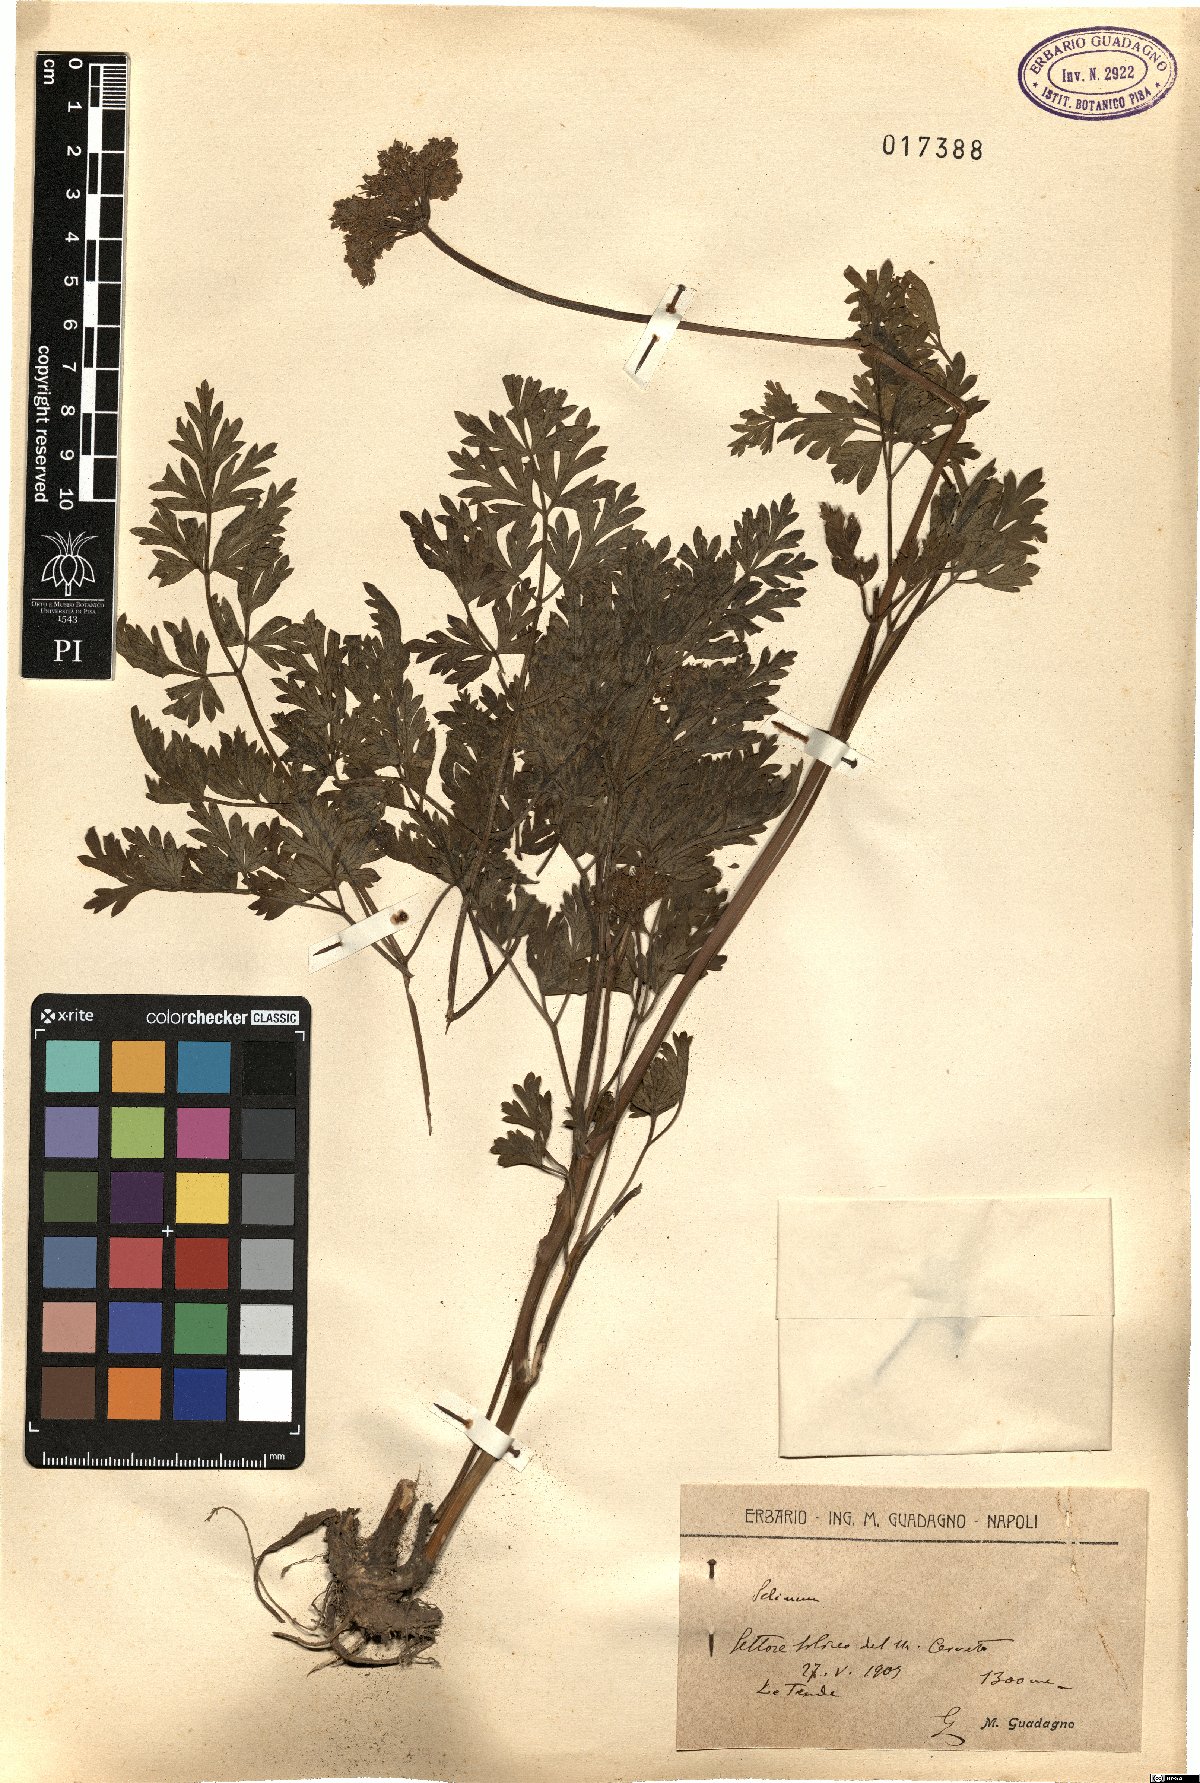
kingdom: Plantae
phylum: Tracheophyta
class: Magnoliopsida
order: Apiales
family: Apiaceae
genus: Selinum
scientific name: Selinum
